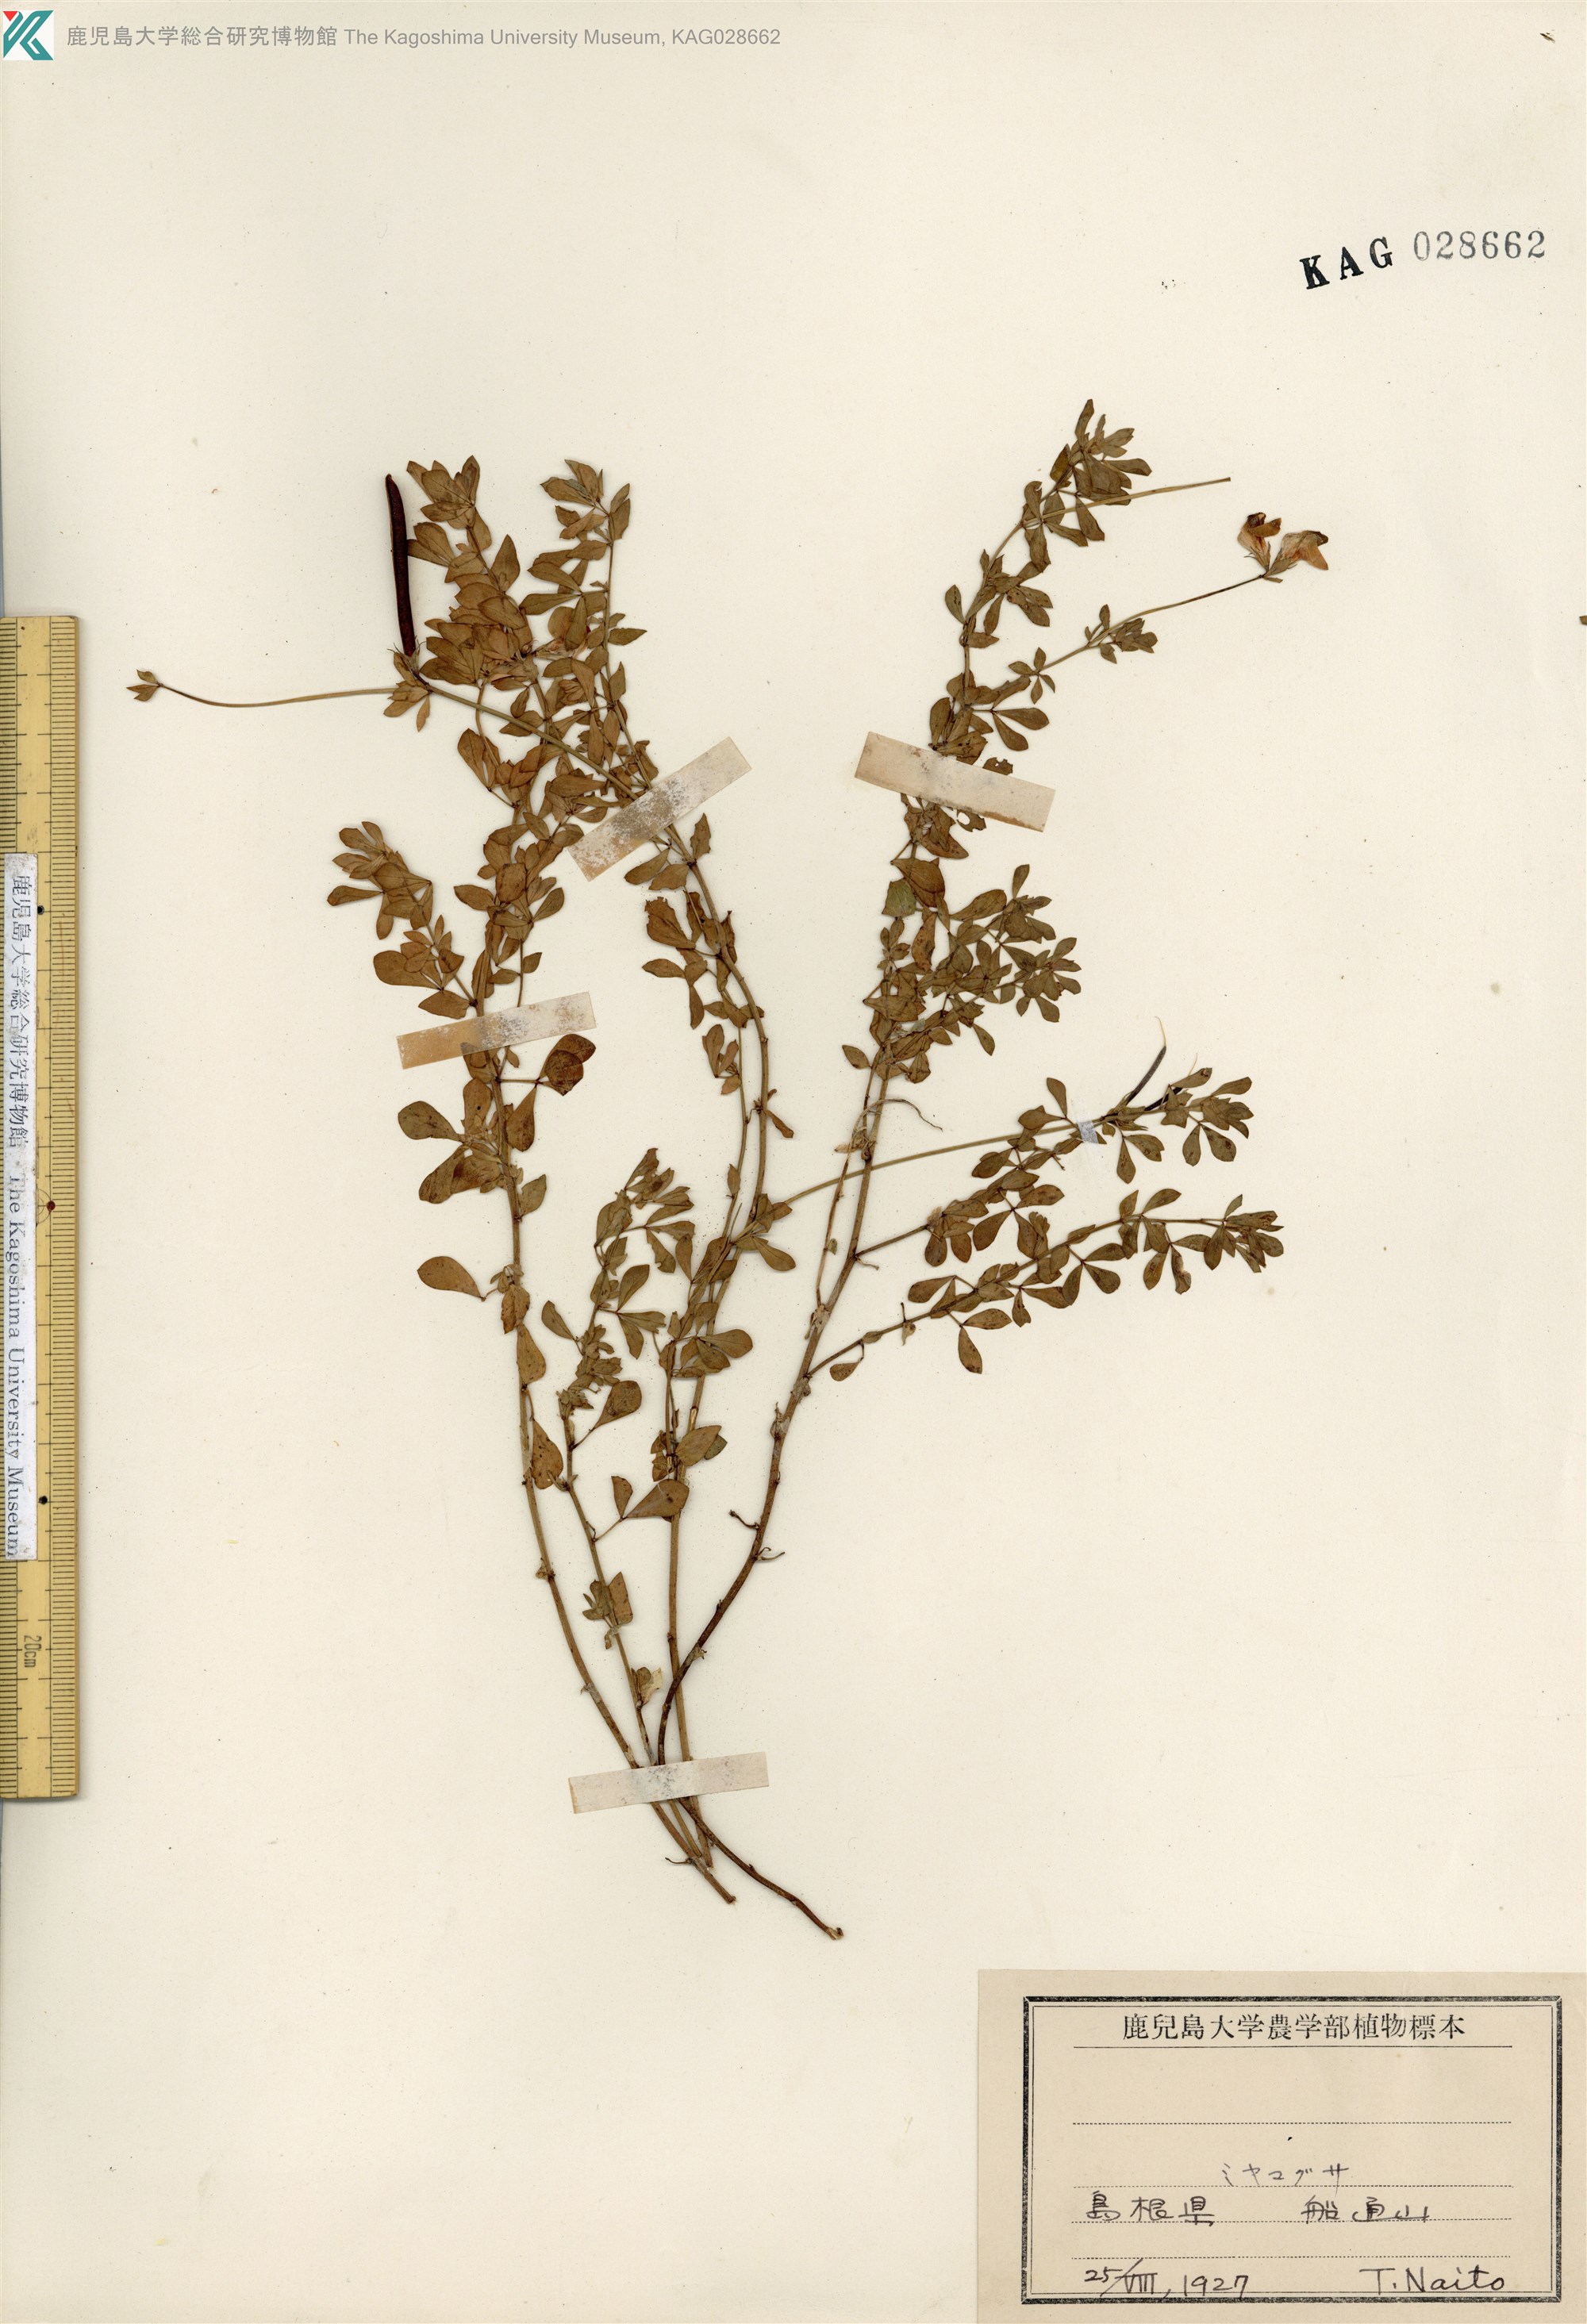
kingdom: Plantae
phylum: Tracheophyta
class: Magnoliopsida
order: Fabales
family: Fabaceae
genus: Lotus
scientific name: Lotus japonicus
